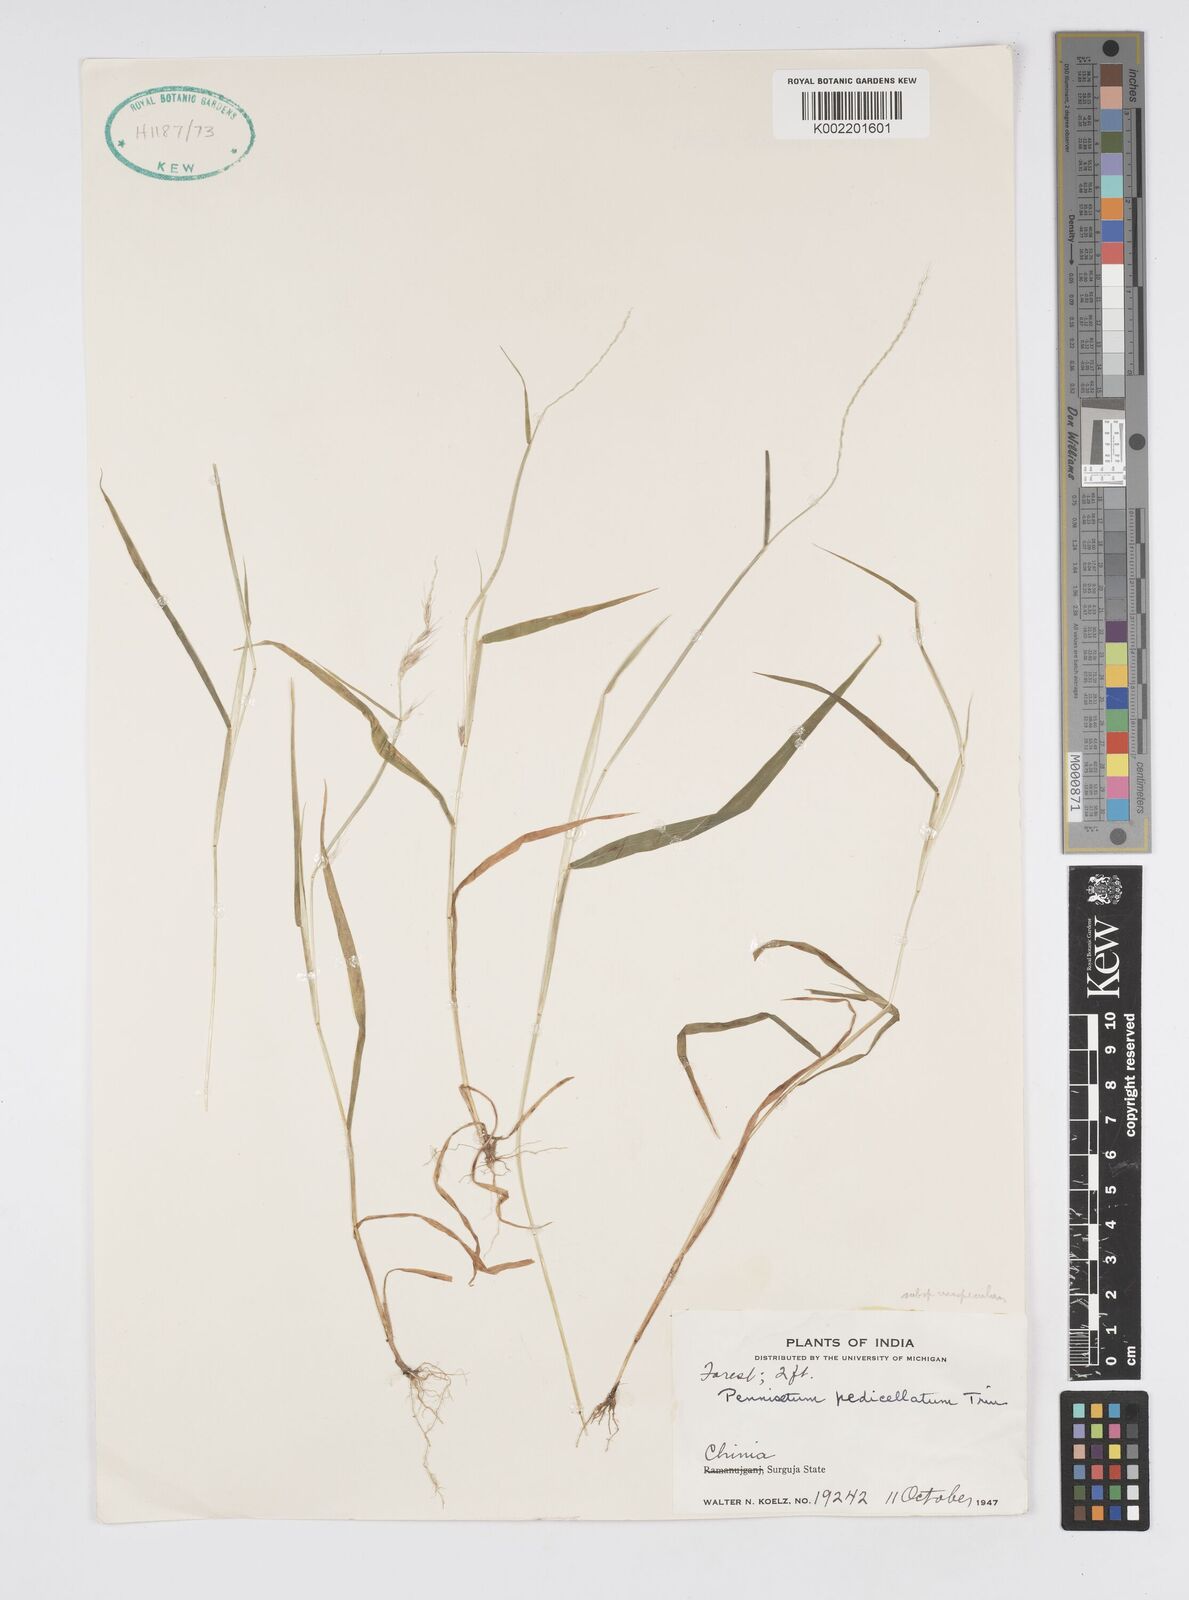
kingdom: Plantae
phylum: Tracheophyta
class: Liliopsida
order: Poales
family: Poaceae
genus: Cenchrus
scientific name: Cenchrus pedicellatus
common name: Hairy fountain grass
